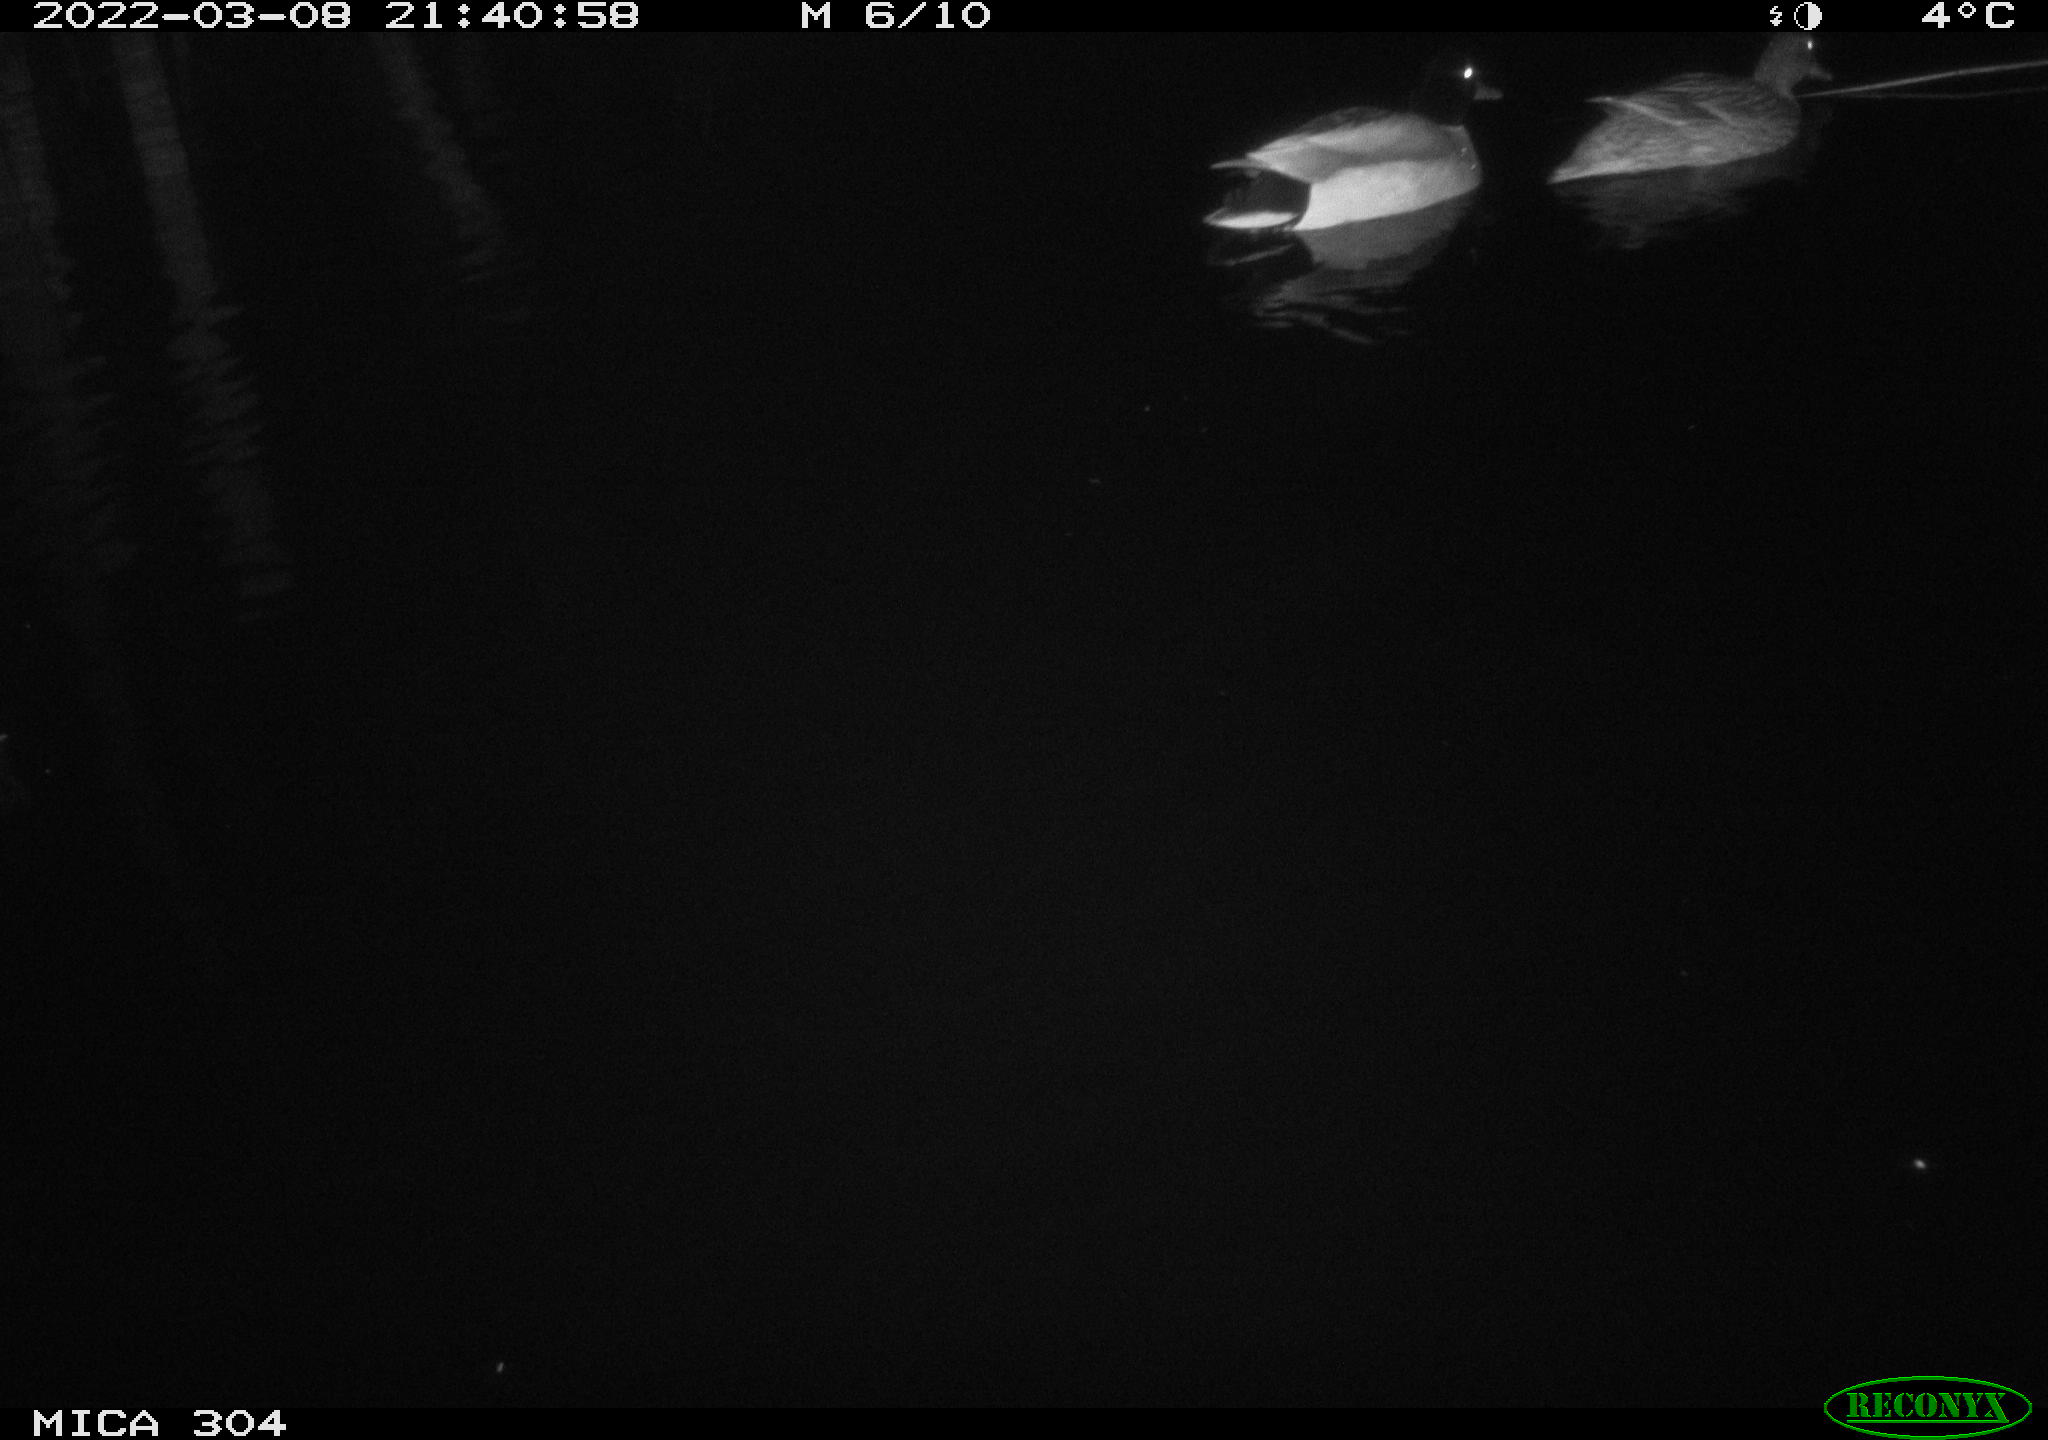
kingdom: Animalia
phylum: Chordata
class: Aves
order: Anseriformes
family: Anatidae
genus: Anas
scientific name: Anas platyrhynchos
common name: Mallard
